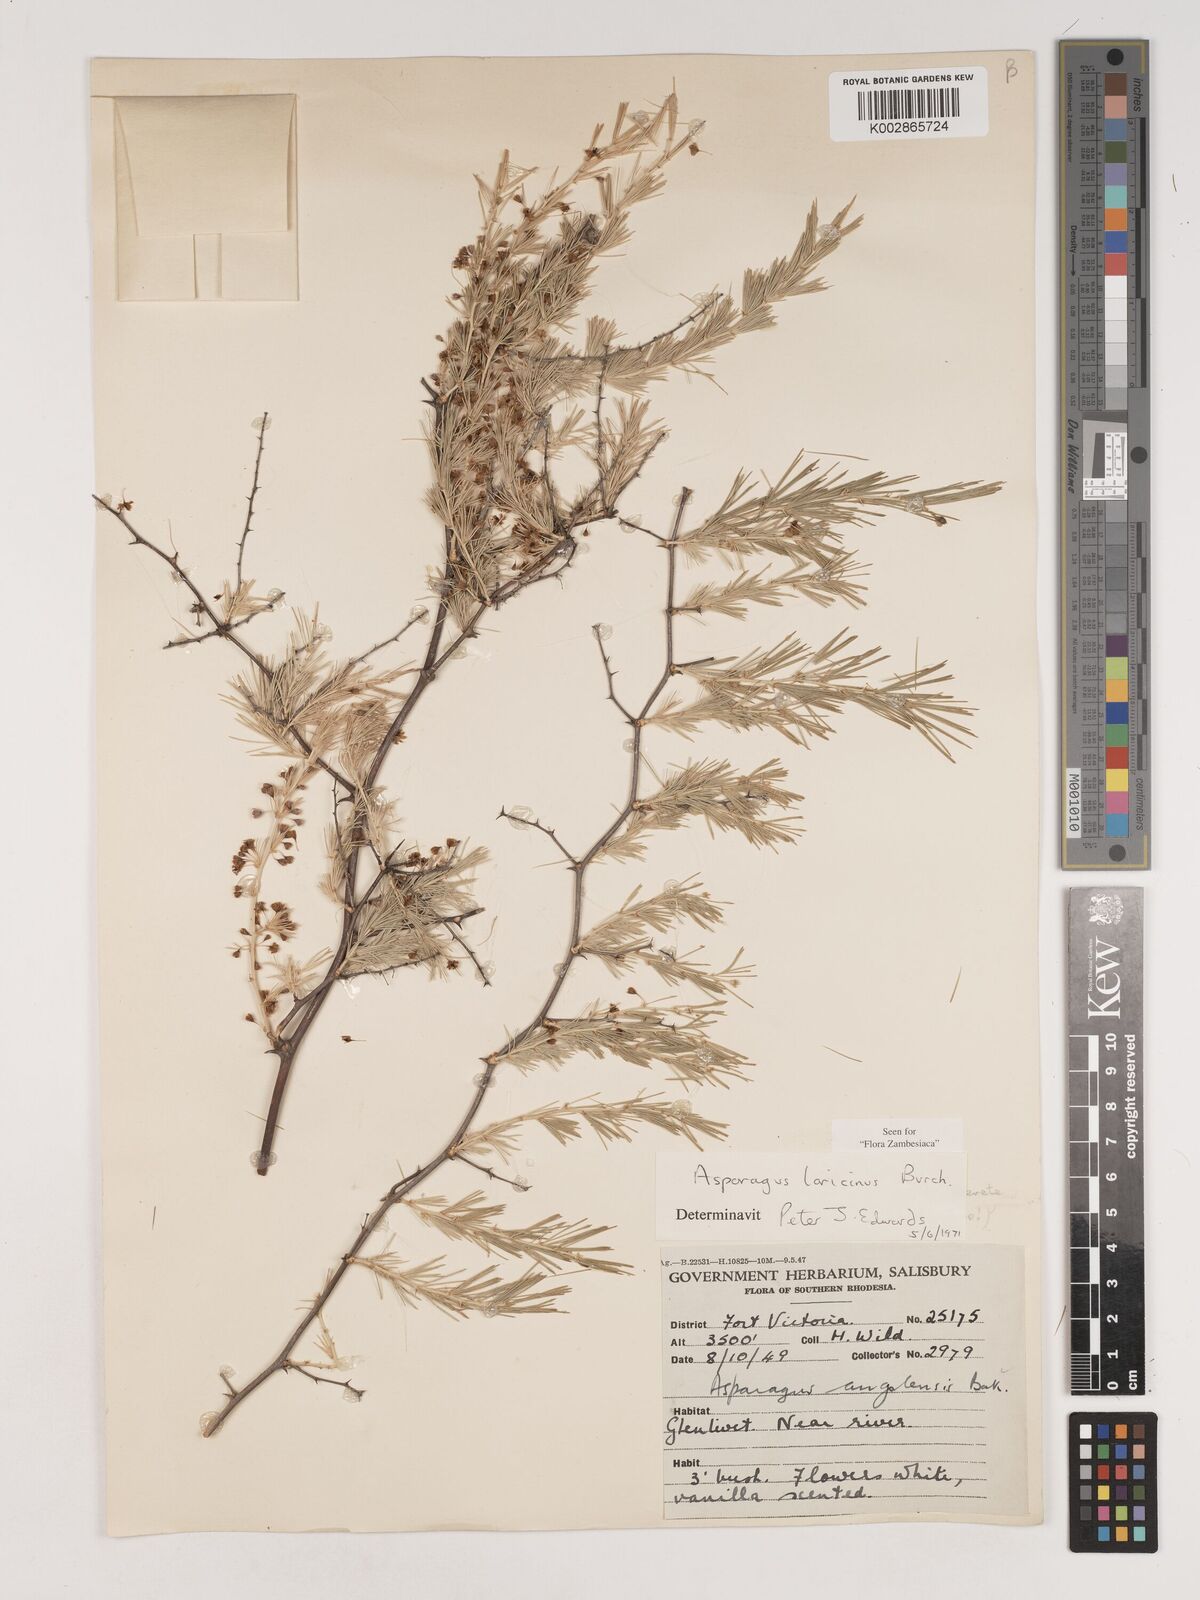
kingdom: Plantae
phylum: Tracheophyta
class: Liliopsida
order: Asparagales
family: Asparagaceae
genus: Asparagus
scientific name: Asparagus laricinus
